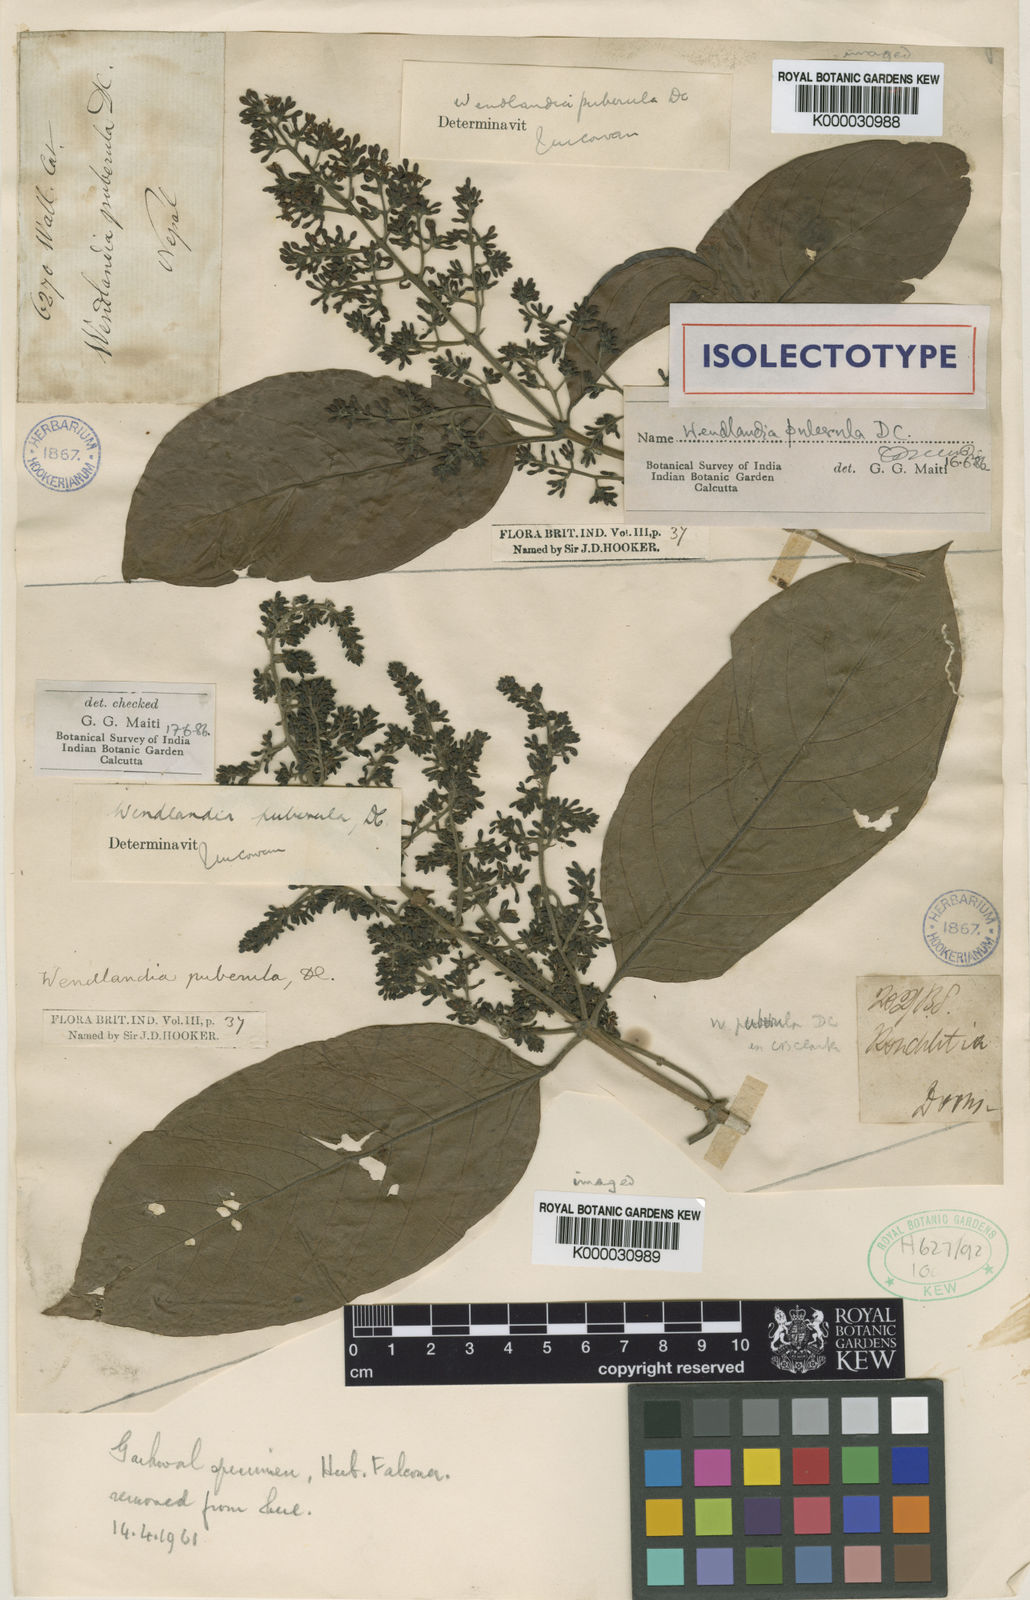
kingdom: Plantae
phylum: Tracheophyta
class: Magnoliopsida
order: Gentianales
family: Rubiaceae
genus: Wendlandia
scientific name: Wendlandia puberula
